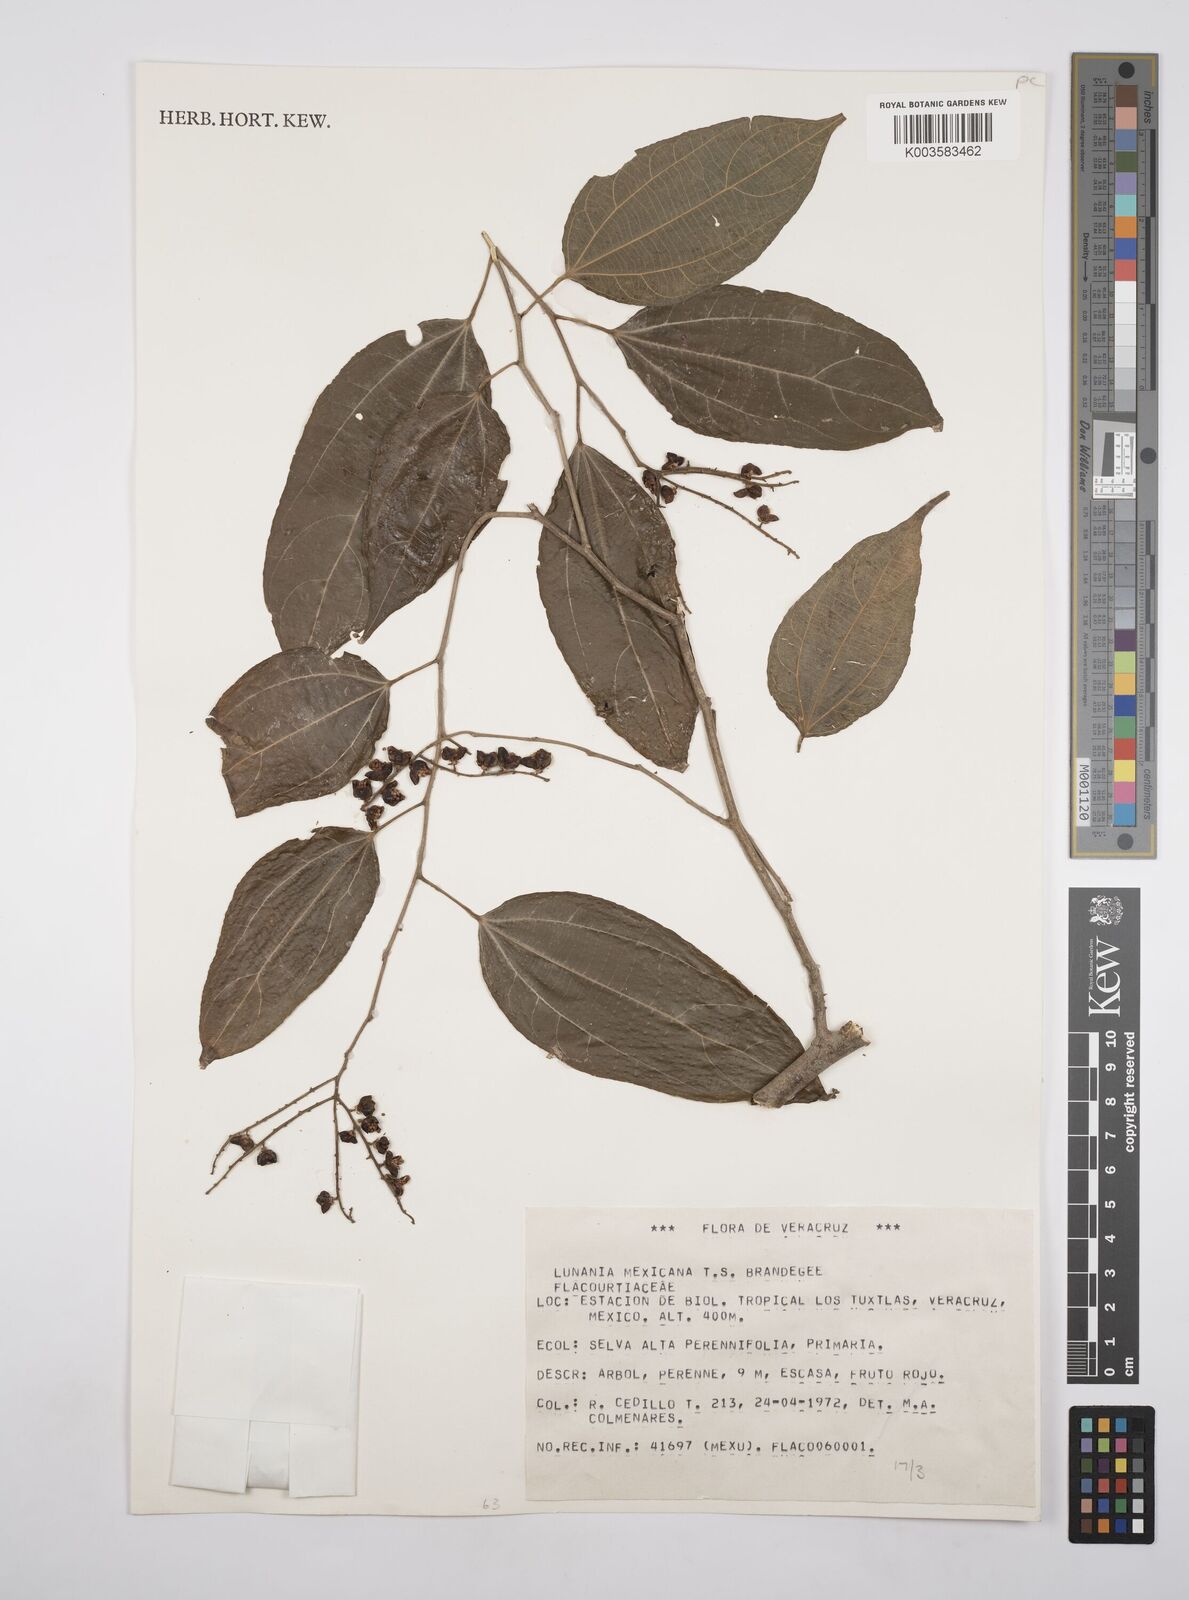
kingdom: Plantae
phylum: Tracheophyta
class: Magnoliopsida
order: Malpighiales
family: Salicaceae
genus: Lunania
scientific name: Lunania mexicana
